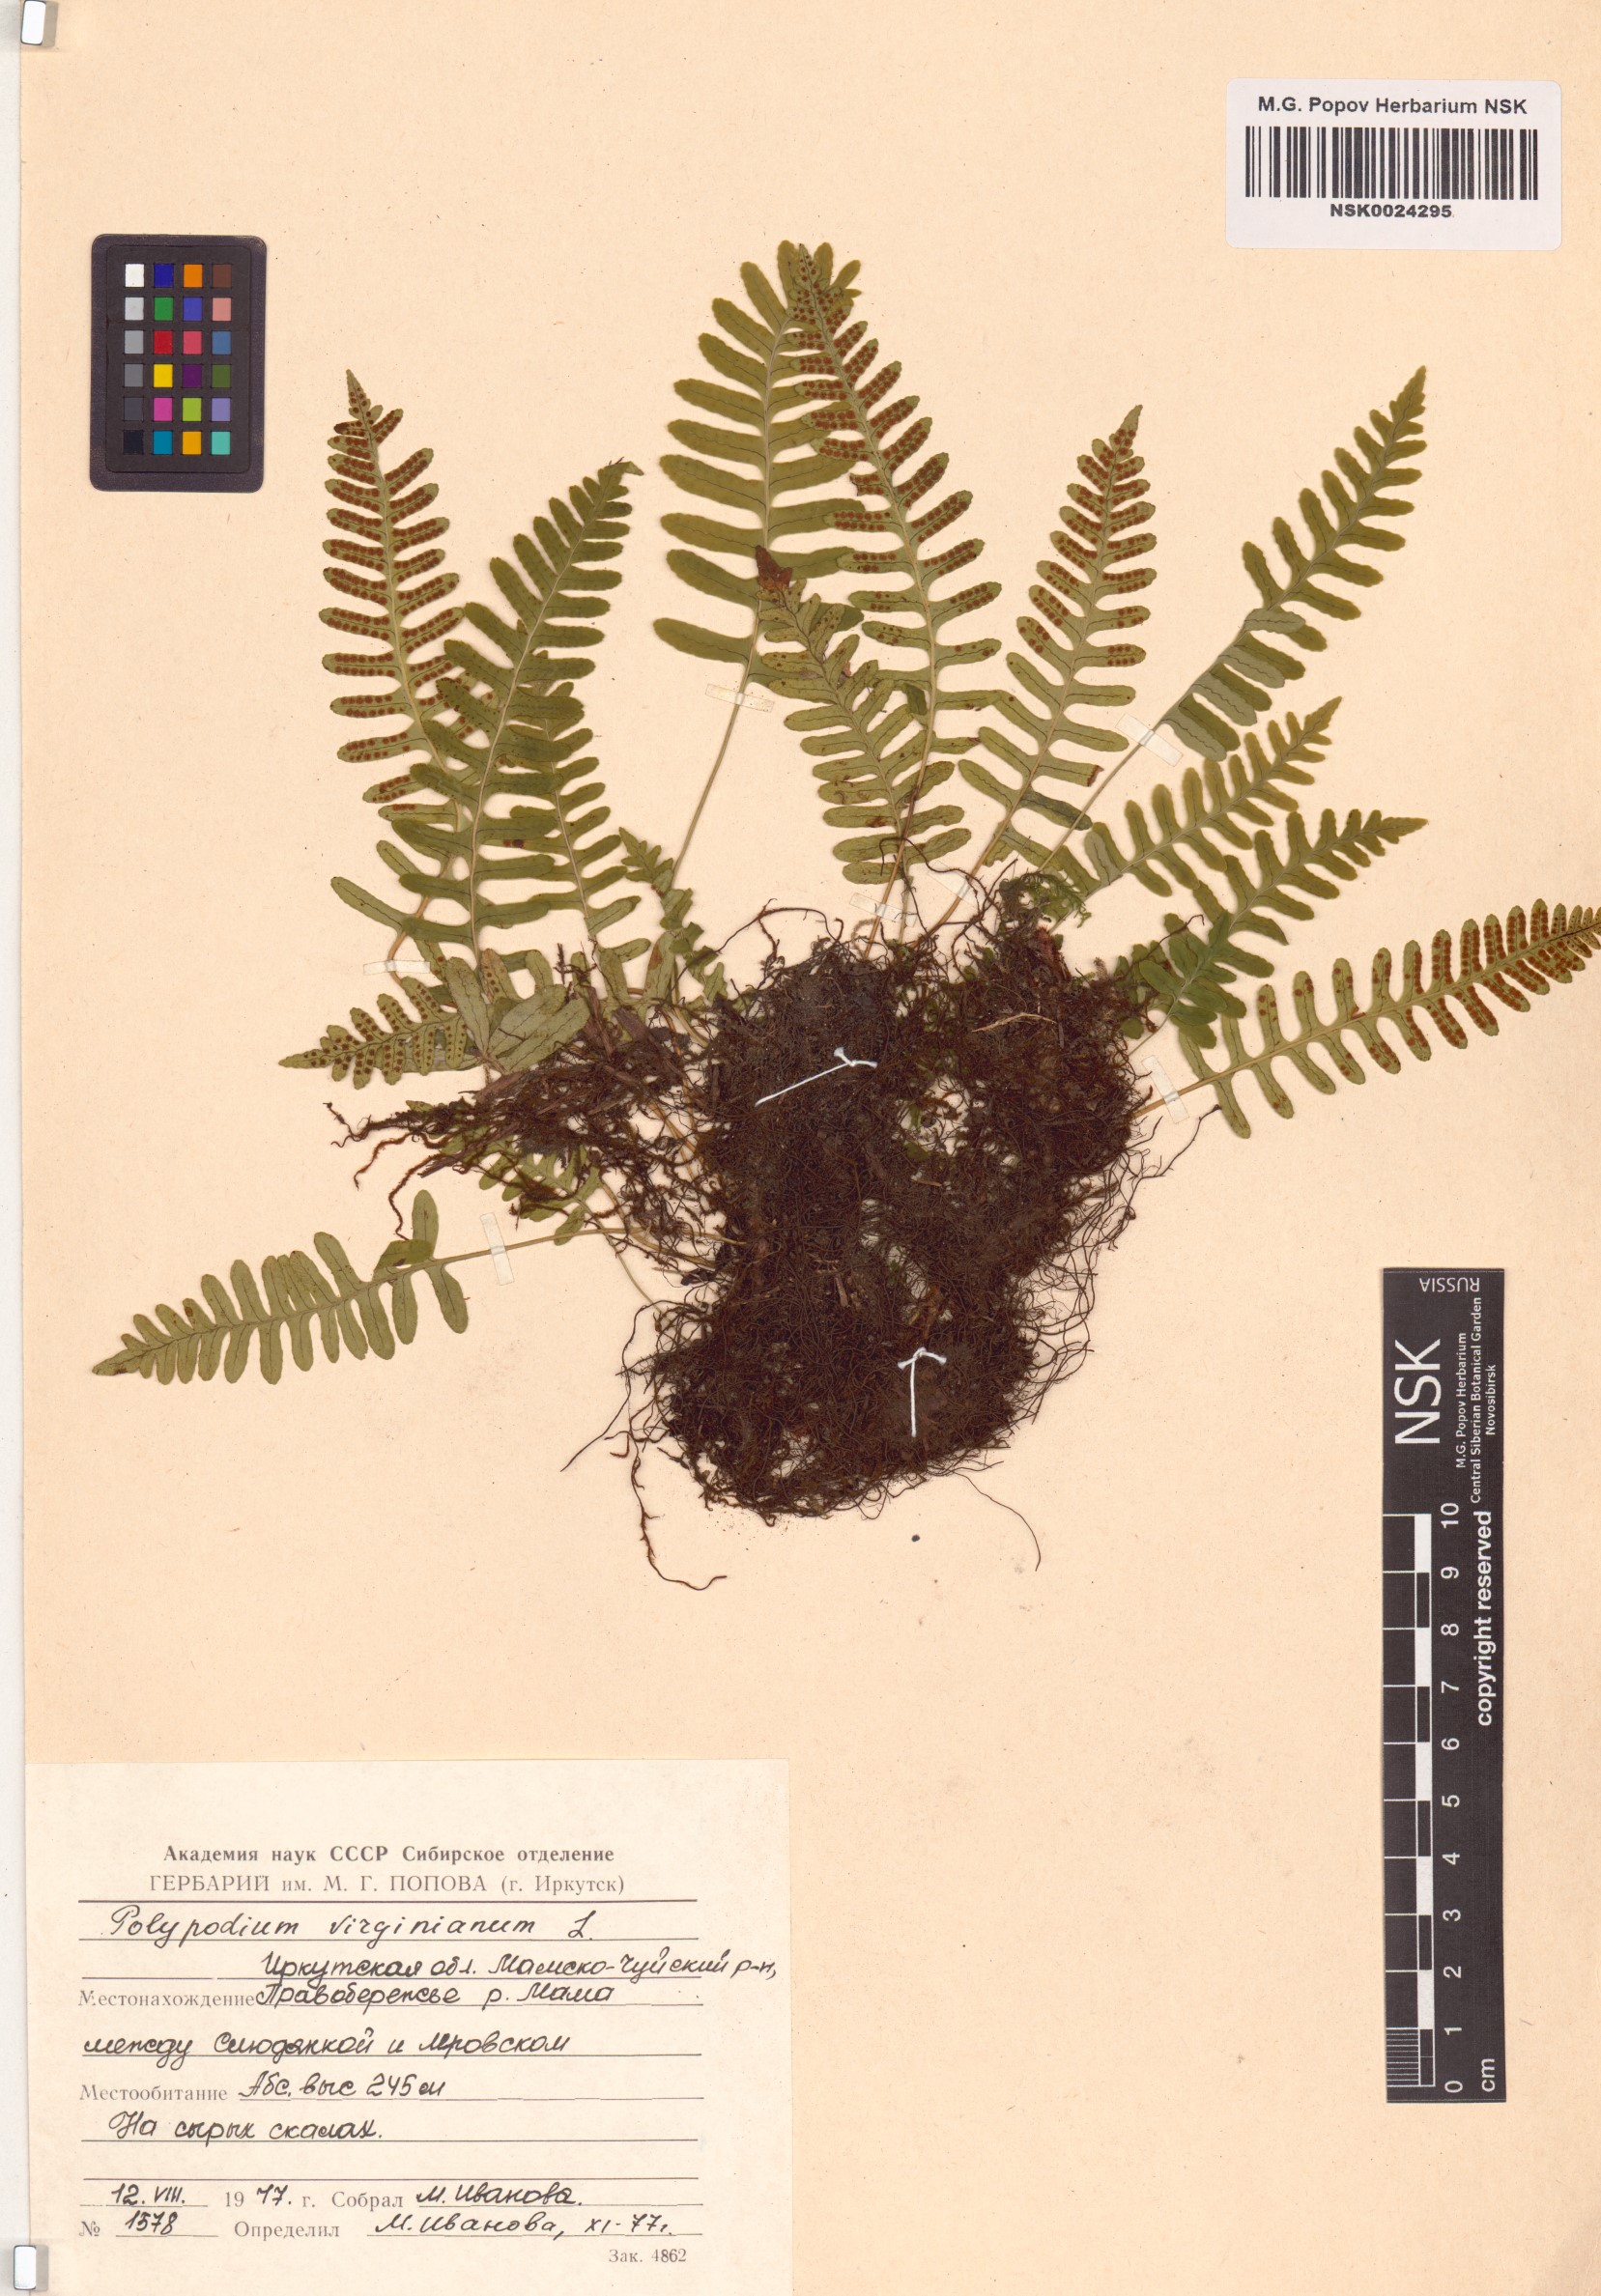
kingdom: Plantae
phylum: Tracheophyta
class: Polypodiopsida
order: Polypodiales
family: Polypodiaceae
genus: Polypodium
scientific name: Polypodium virginianum
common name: American wall fern
